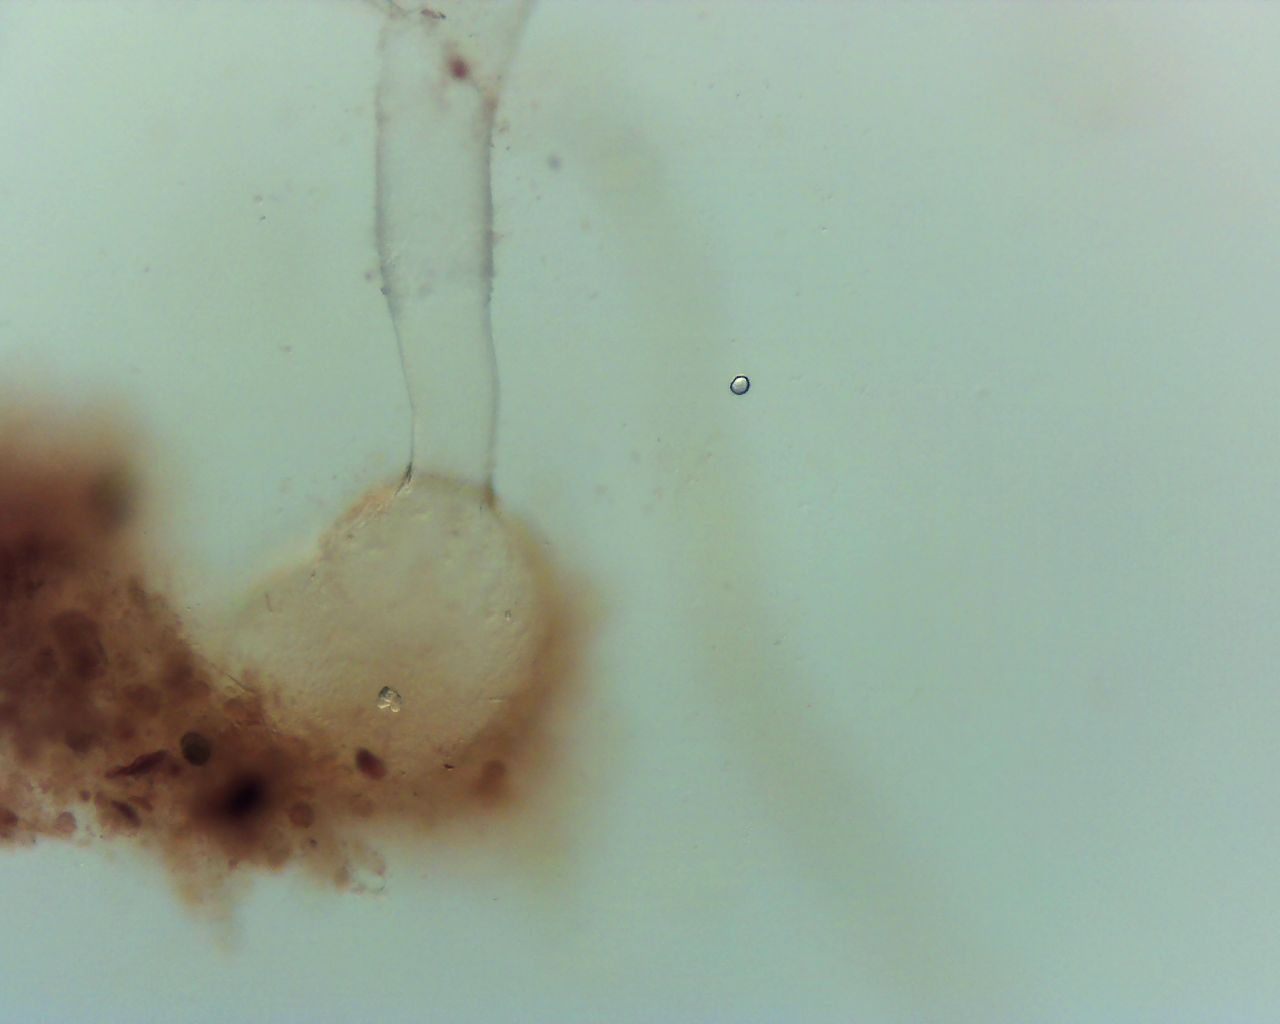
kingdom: Fungi
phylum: Mucoromycota
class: Mucoromycetes
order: Mucorales
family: Pilobolaceae
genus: Pilobolus
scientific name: Pilobolus
